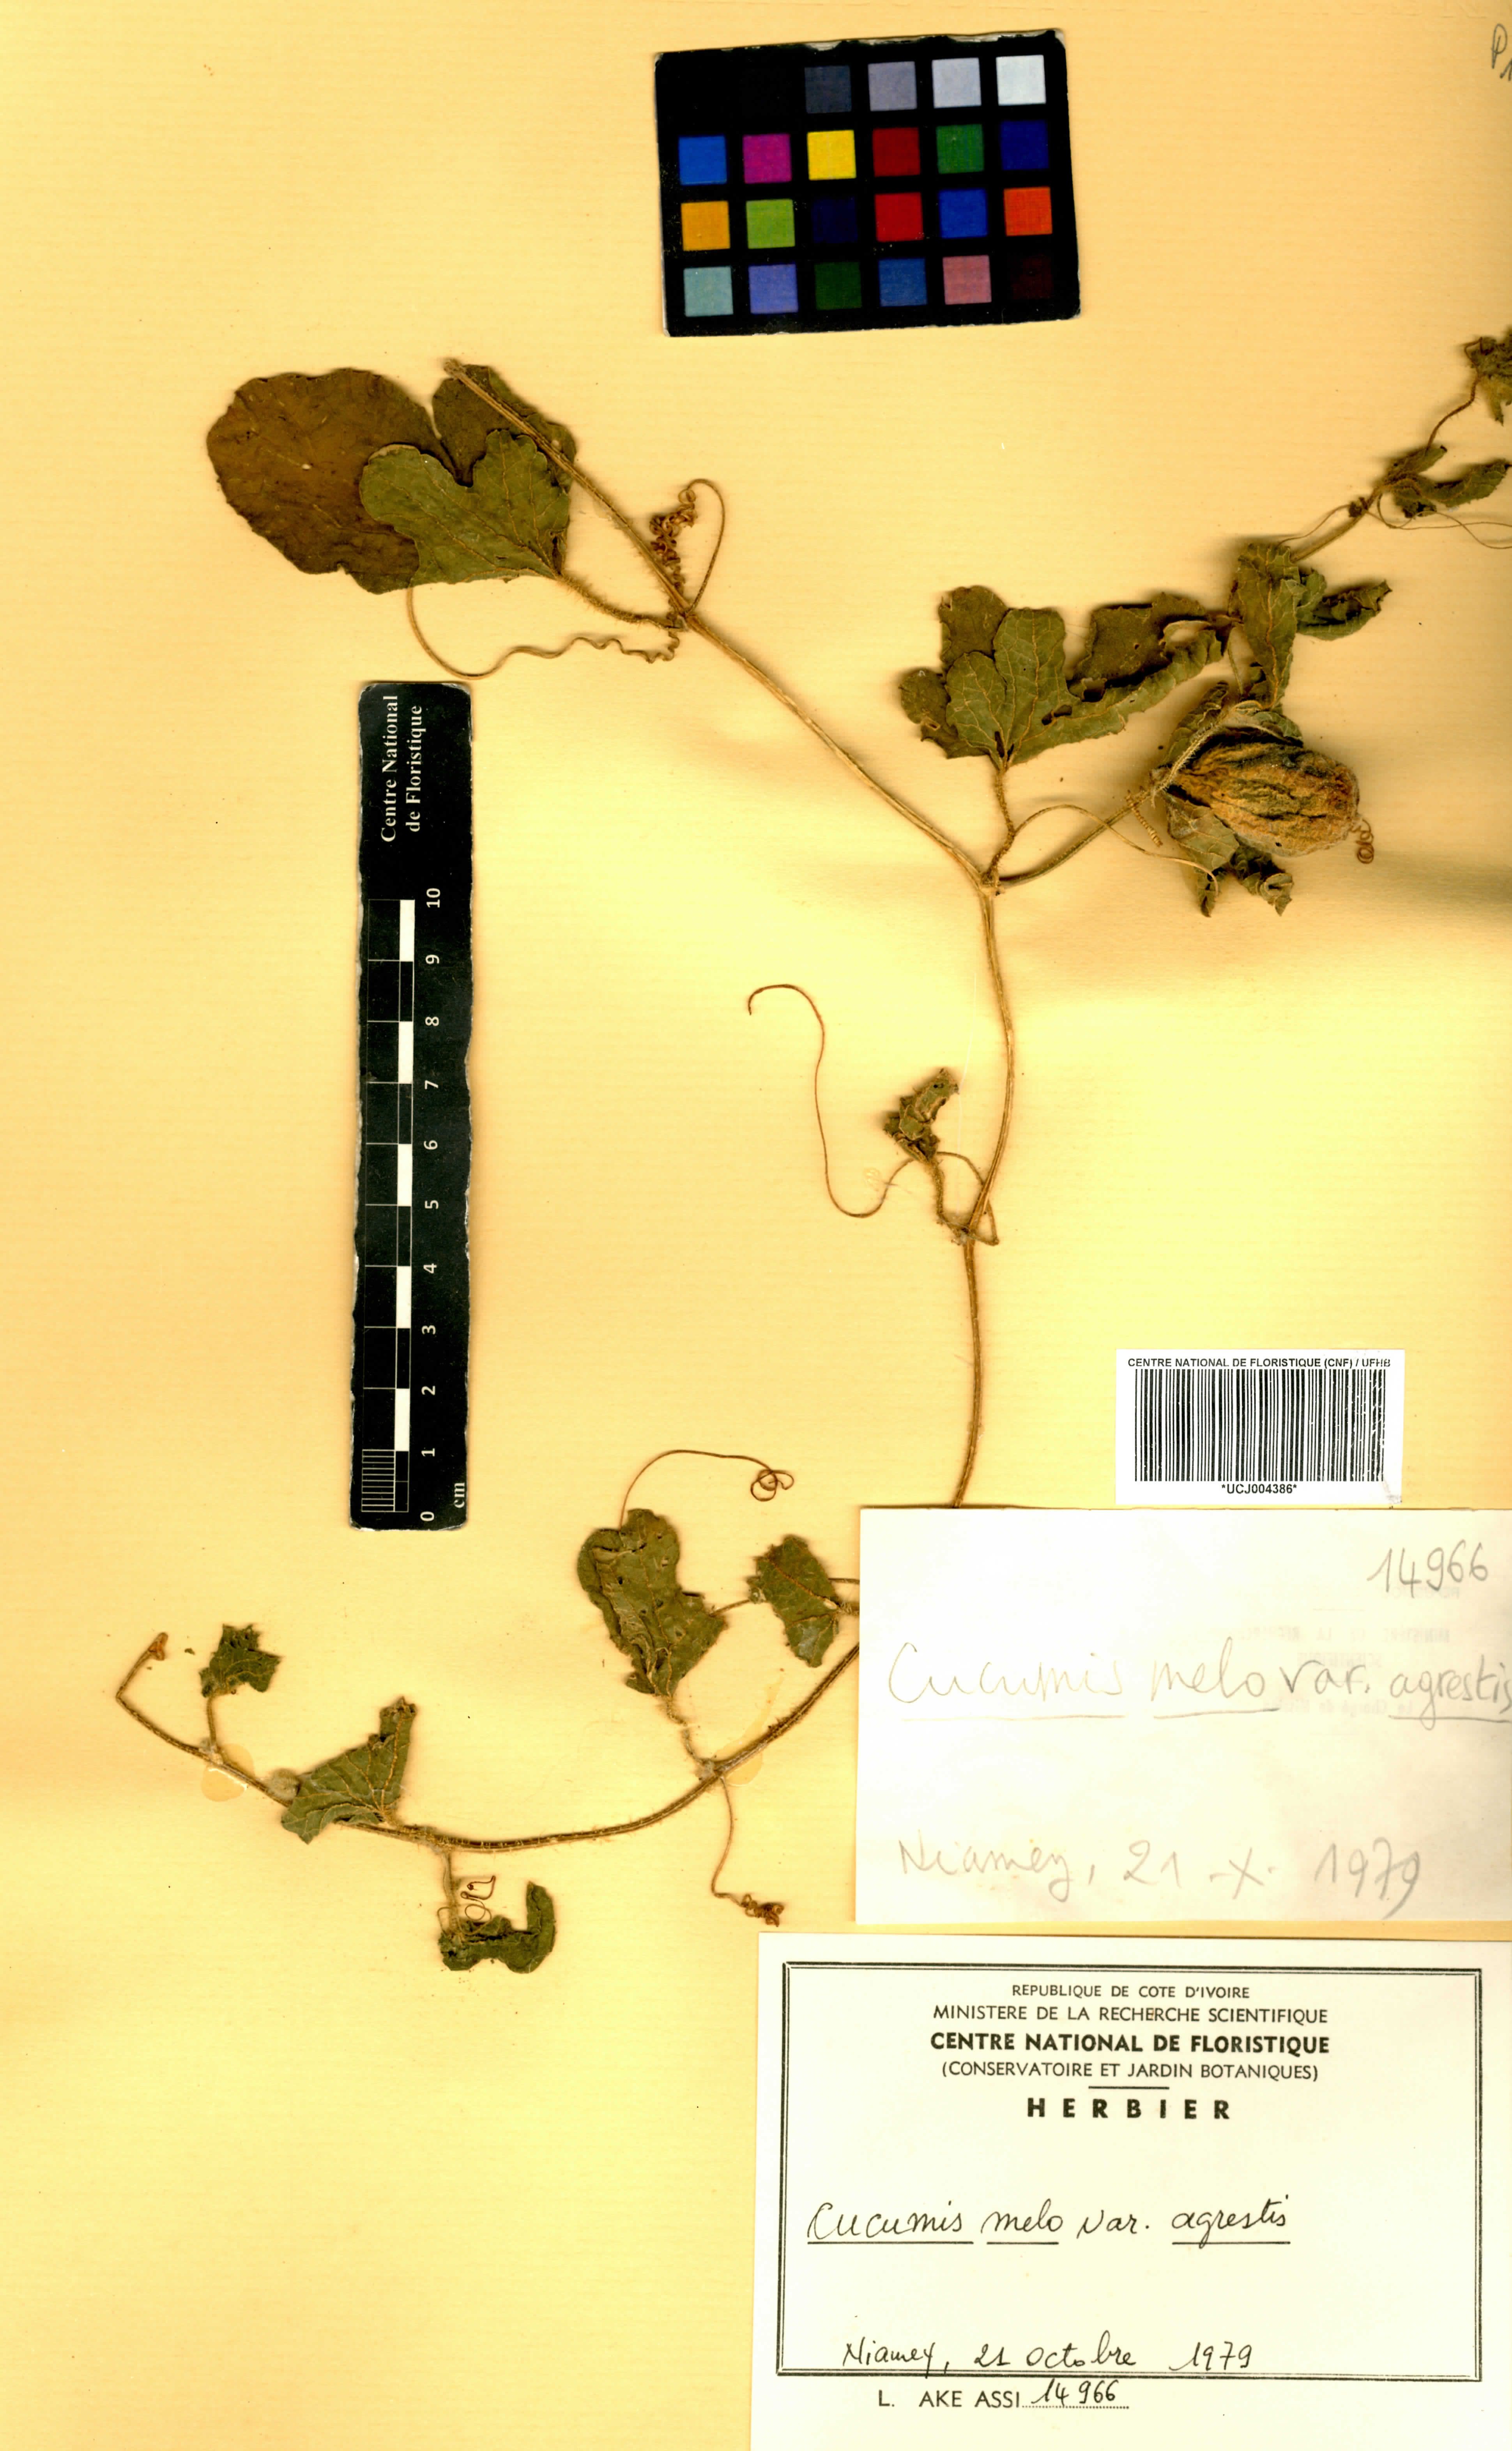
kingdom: Plantae
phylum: Tracheophyta
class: Magnoliopsida
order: Cucurbitales
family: Cucurbitaceae
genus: Cucumis
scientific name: Cucumis melo
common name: Melon
